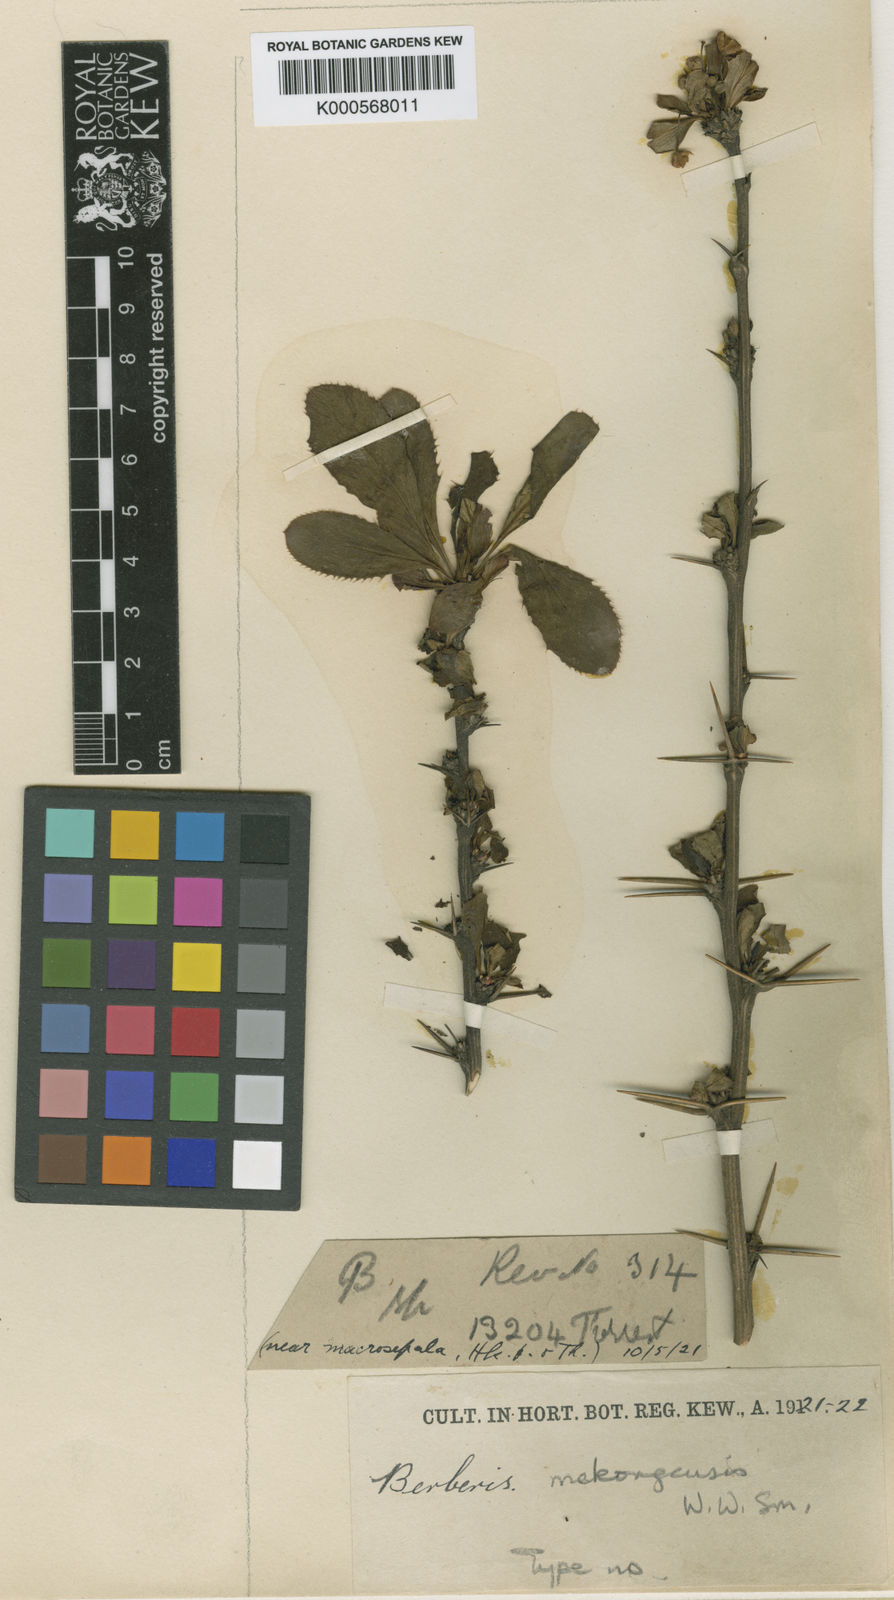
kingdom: Plantae
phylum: Tracheophyta
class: Magnoliopsida
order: Ranunculales
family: Berberidaceae
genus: Berberis
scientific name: Berberis mekongensis
